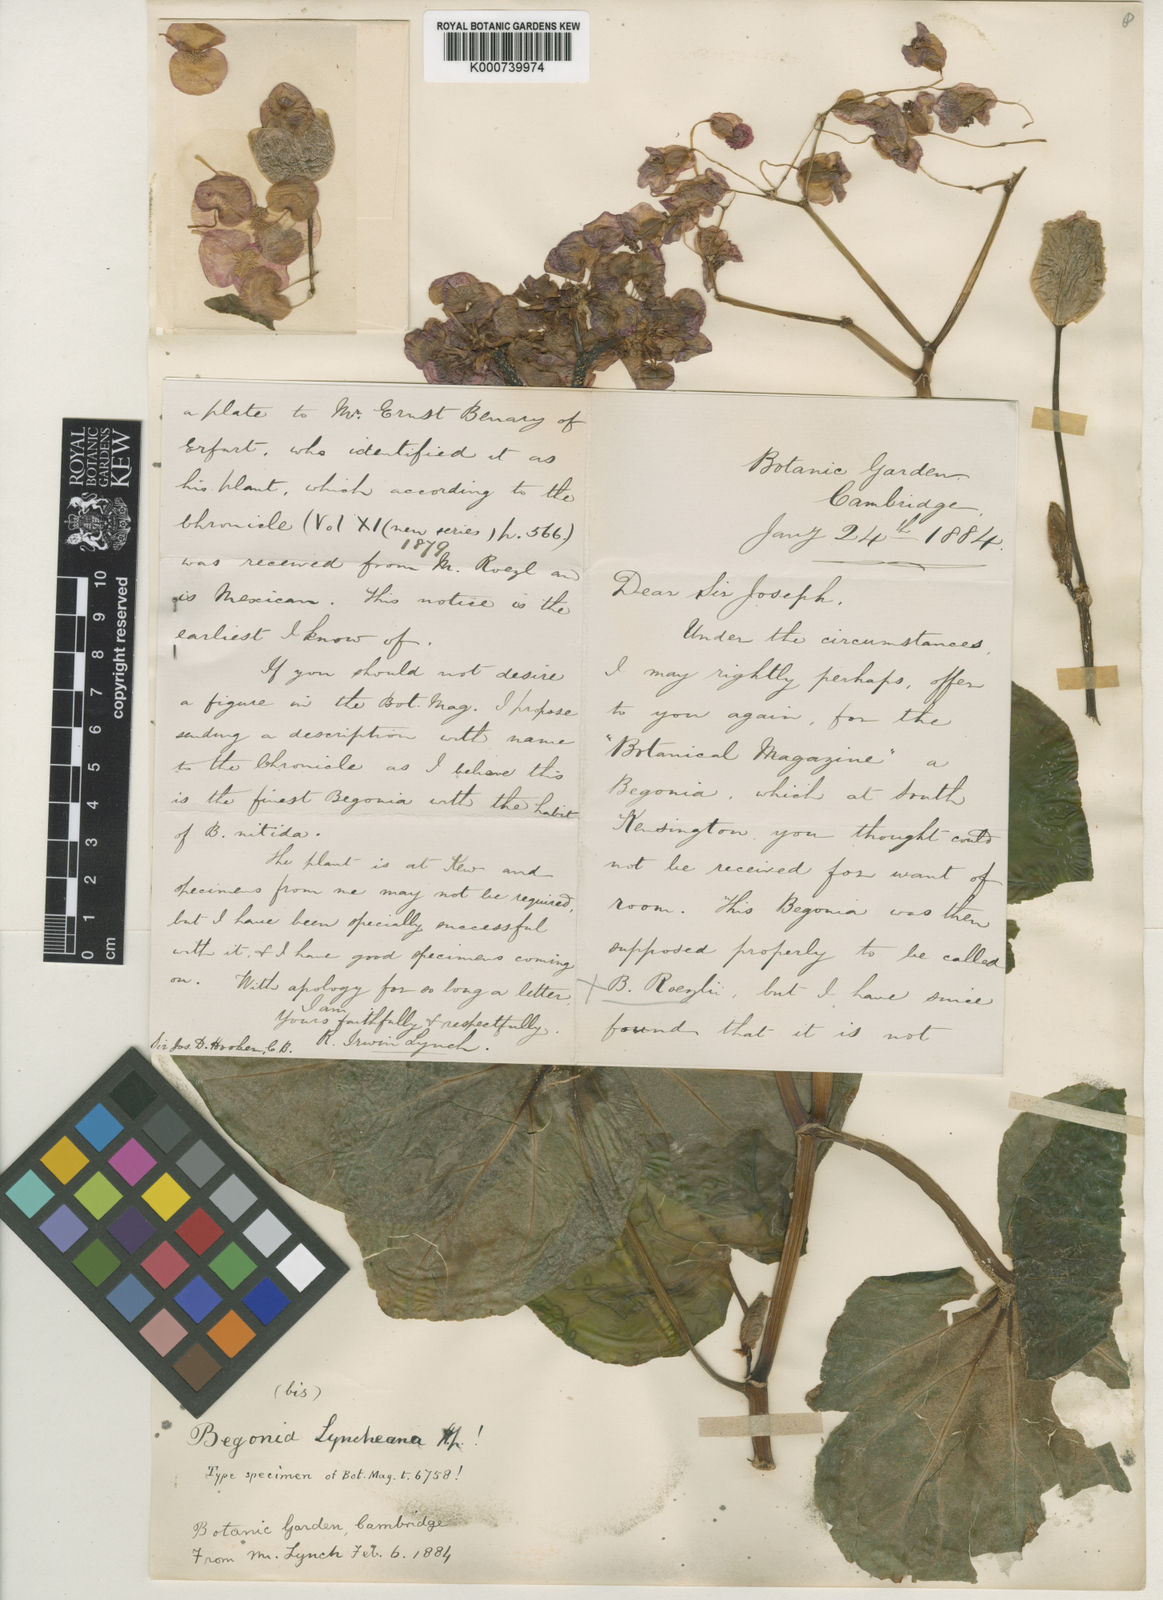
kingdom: Plantae
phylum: Tracheophyta
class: Magnoliopsida
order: Cucurbitales
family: Begoniaceae
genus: Begonia
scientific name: Begonia
